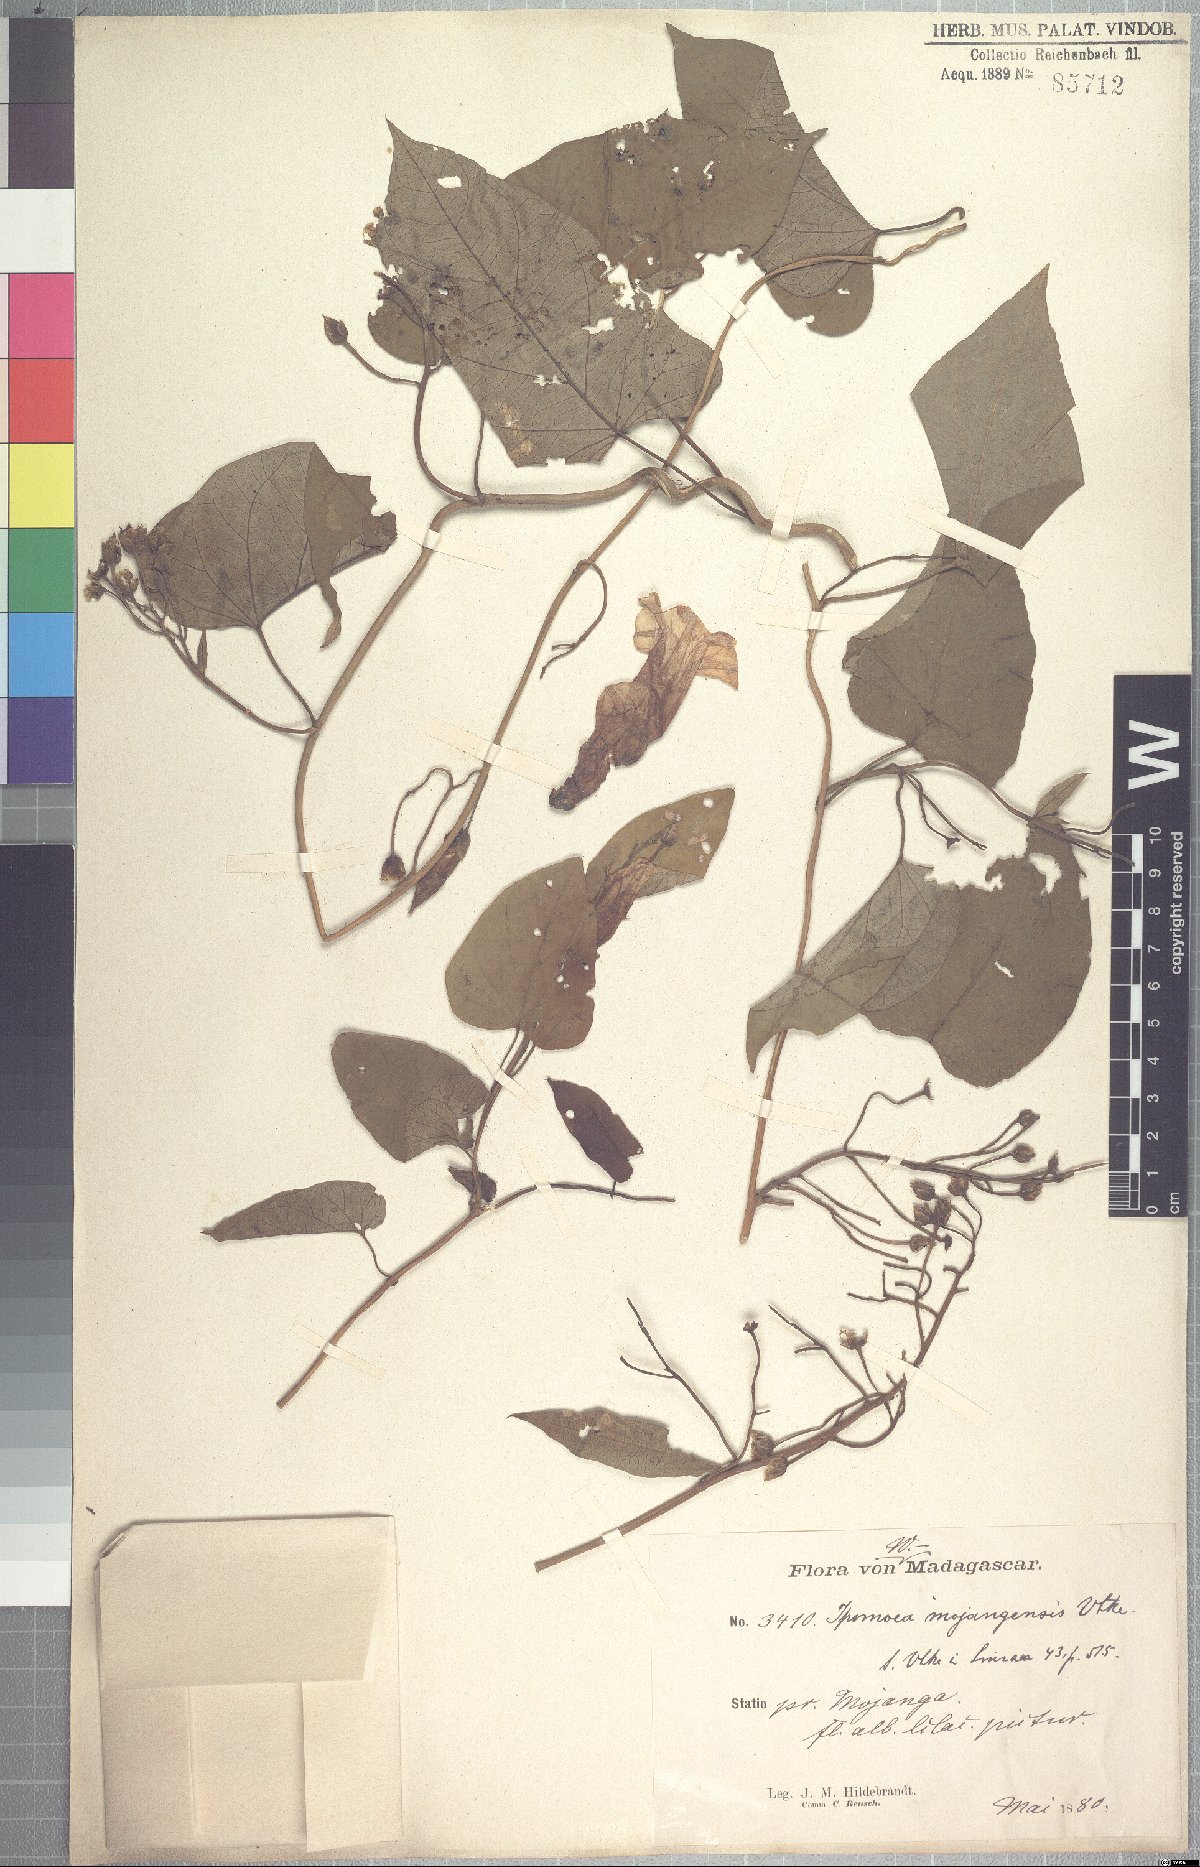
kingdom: Plantae
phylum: Tracheophyta
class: Magnoliopsida
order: Solanales
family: Convolvulaceae
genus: Stictocardia
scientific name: Stictocardia mojangensis
